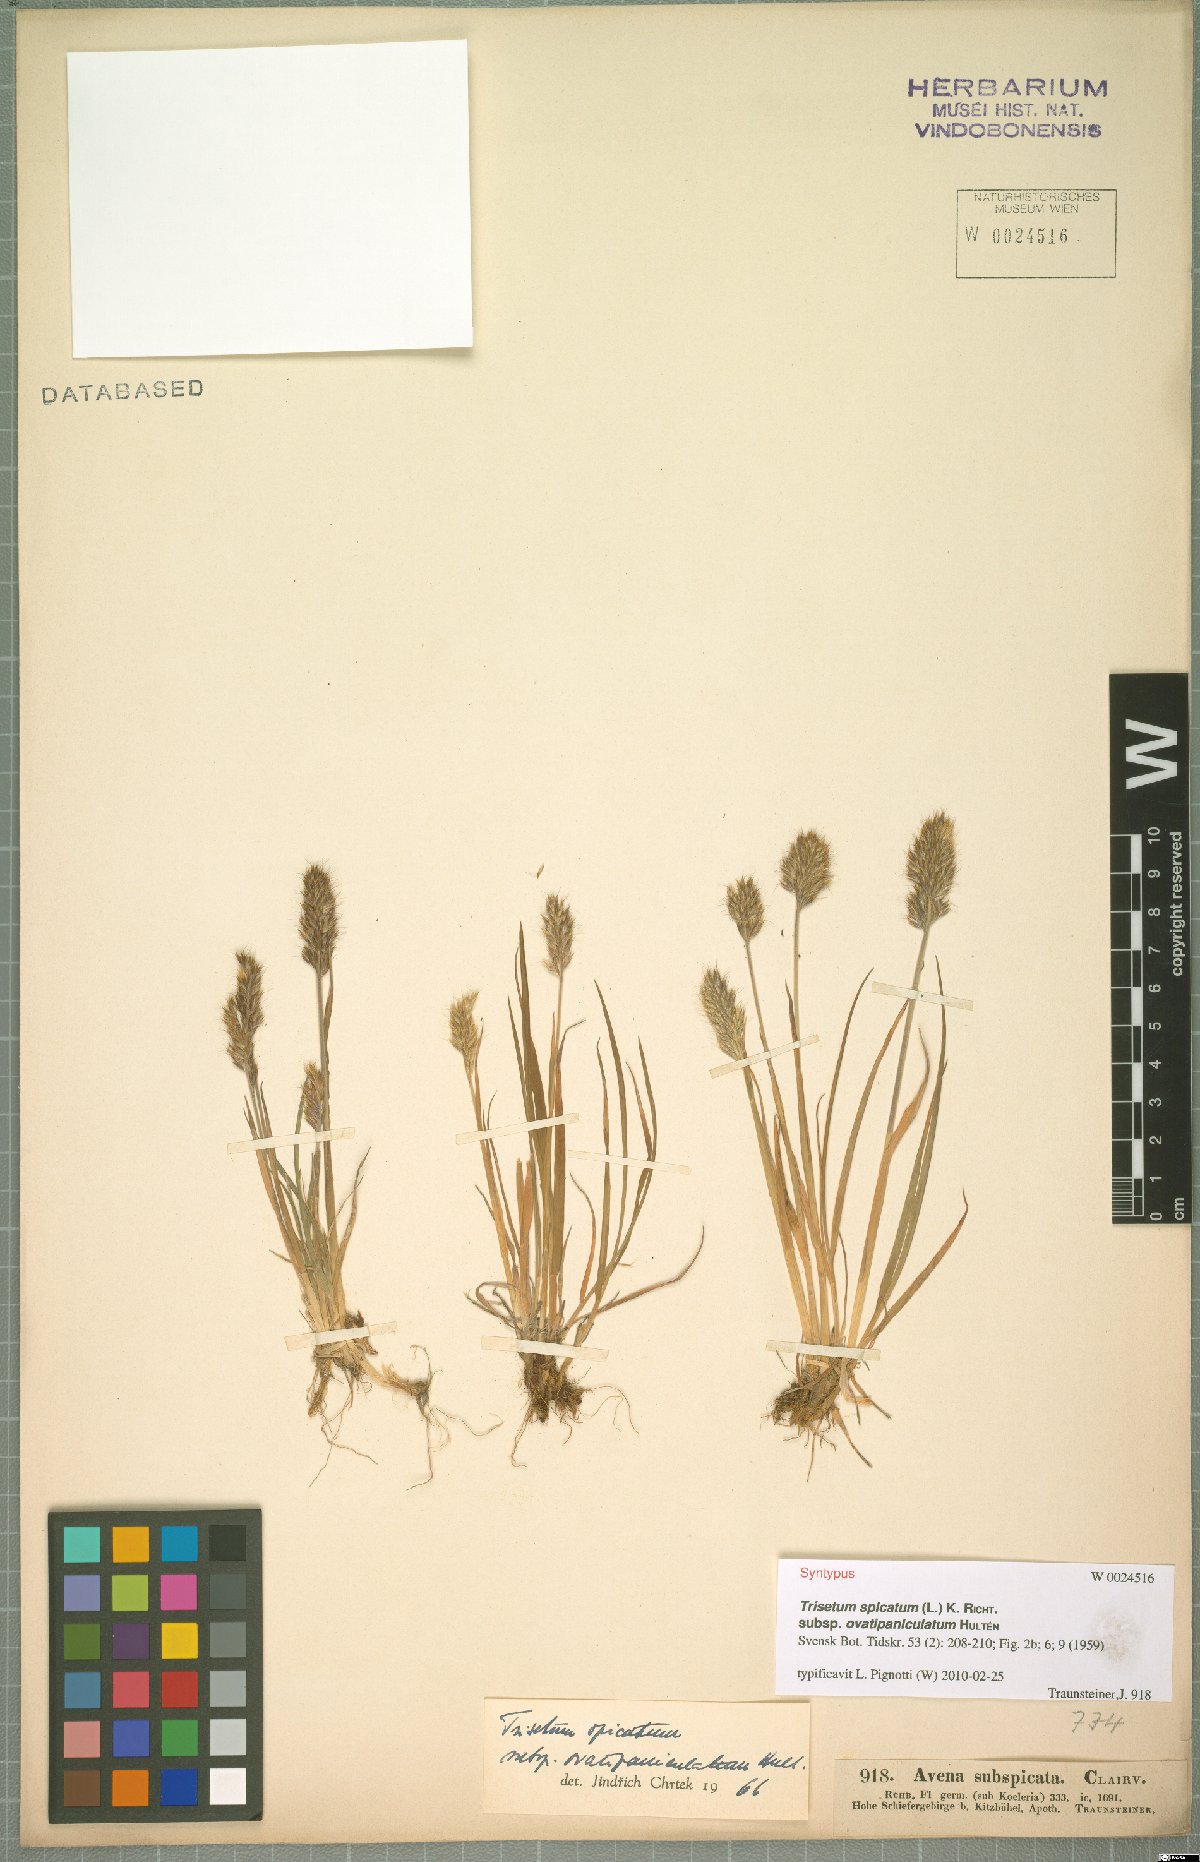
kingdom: Plantae
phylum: Tracheophyta
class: Liliopsida
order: Poales
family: Poaceae
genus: Koeleria
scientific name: Koeleria spicata
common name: Mountain trisetum
